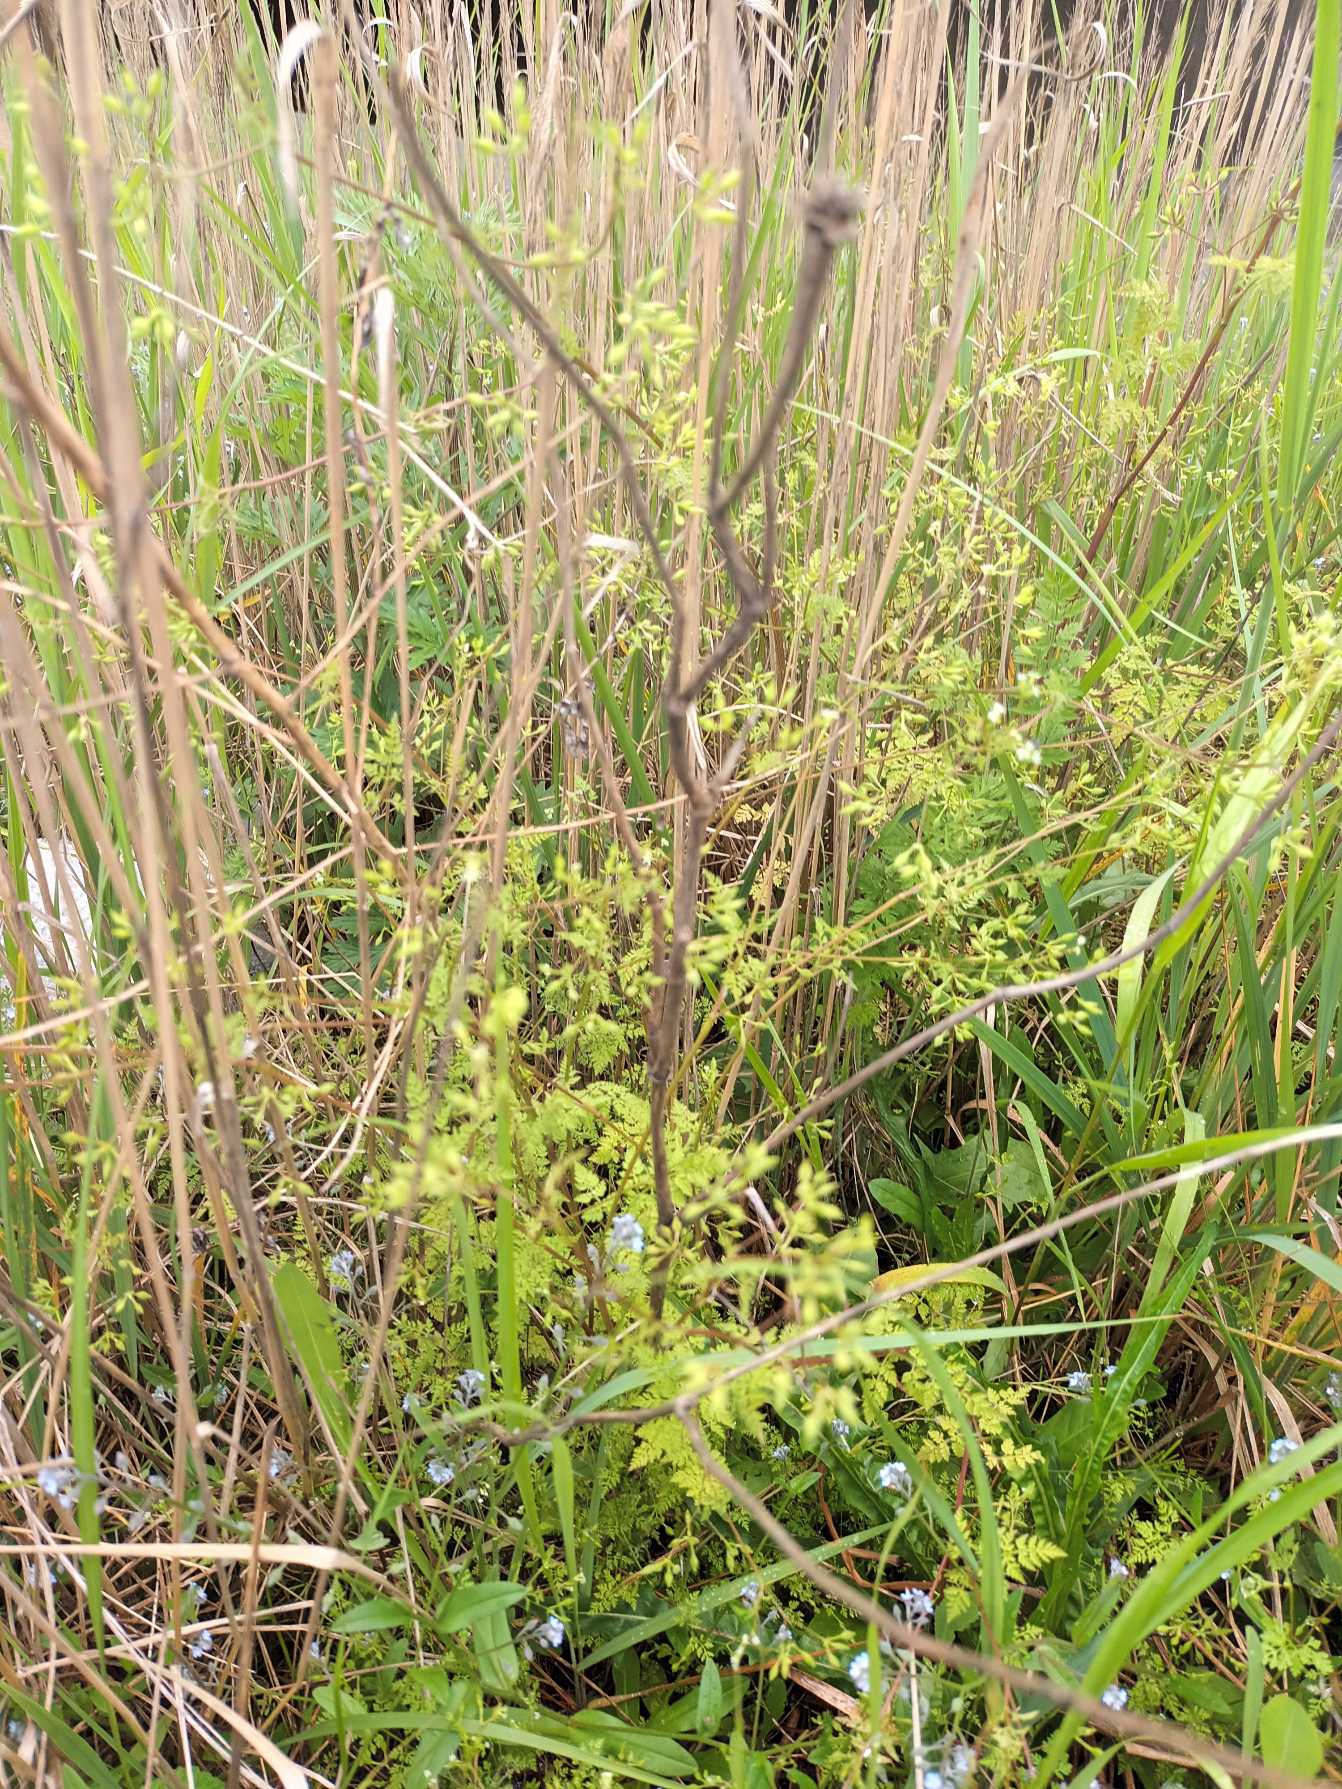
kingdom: Plantae
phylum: Tracheophyta
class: Magnoliopsida
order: Apiales
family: Apiaceae
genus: Anthriscus
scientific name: Anthriscus caucalis
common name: Gærde-kørvel
